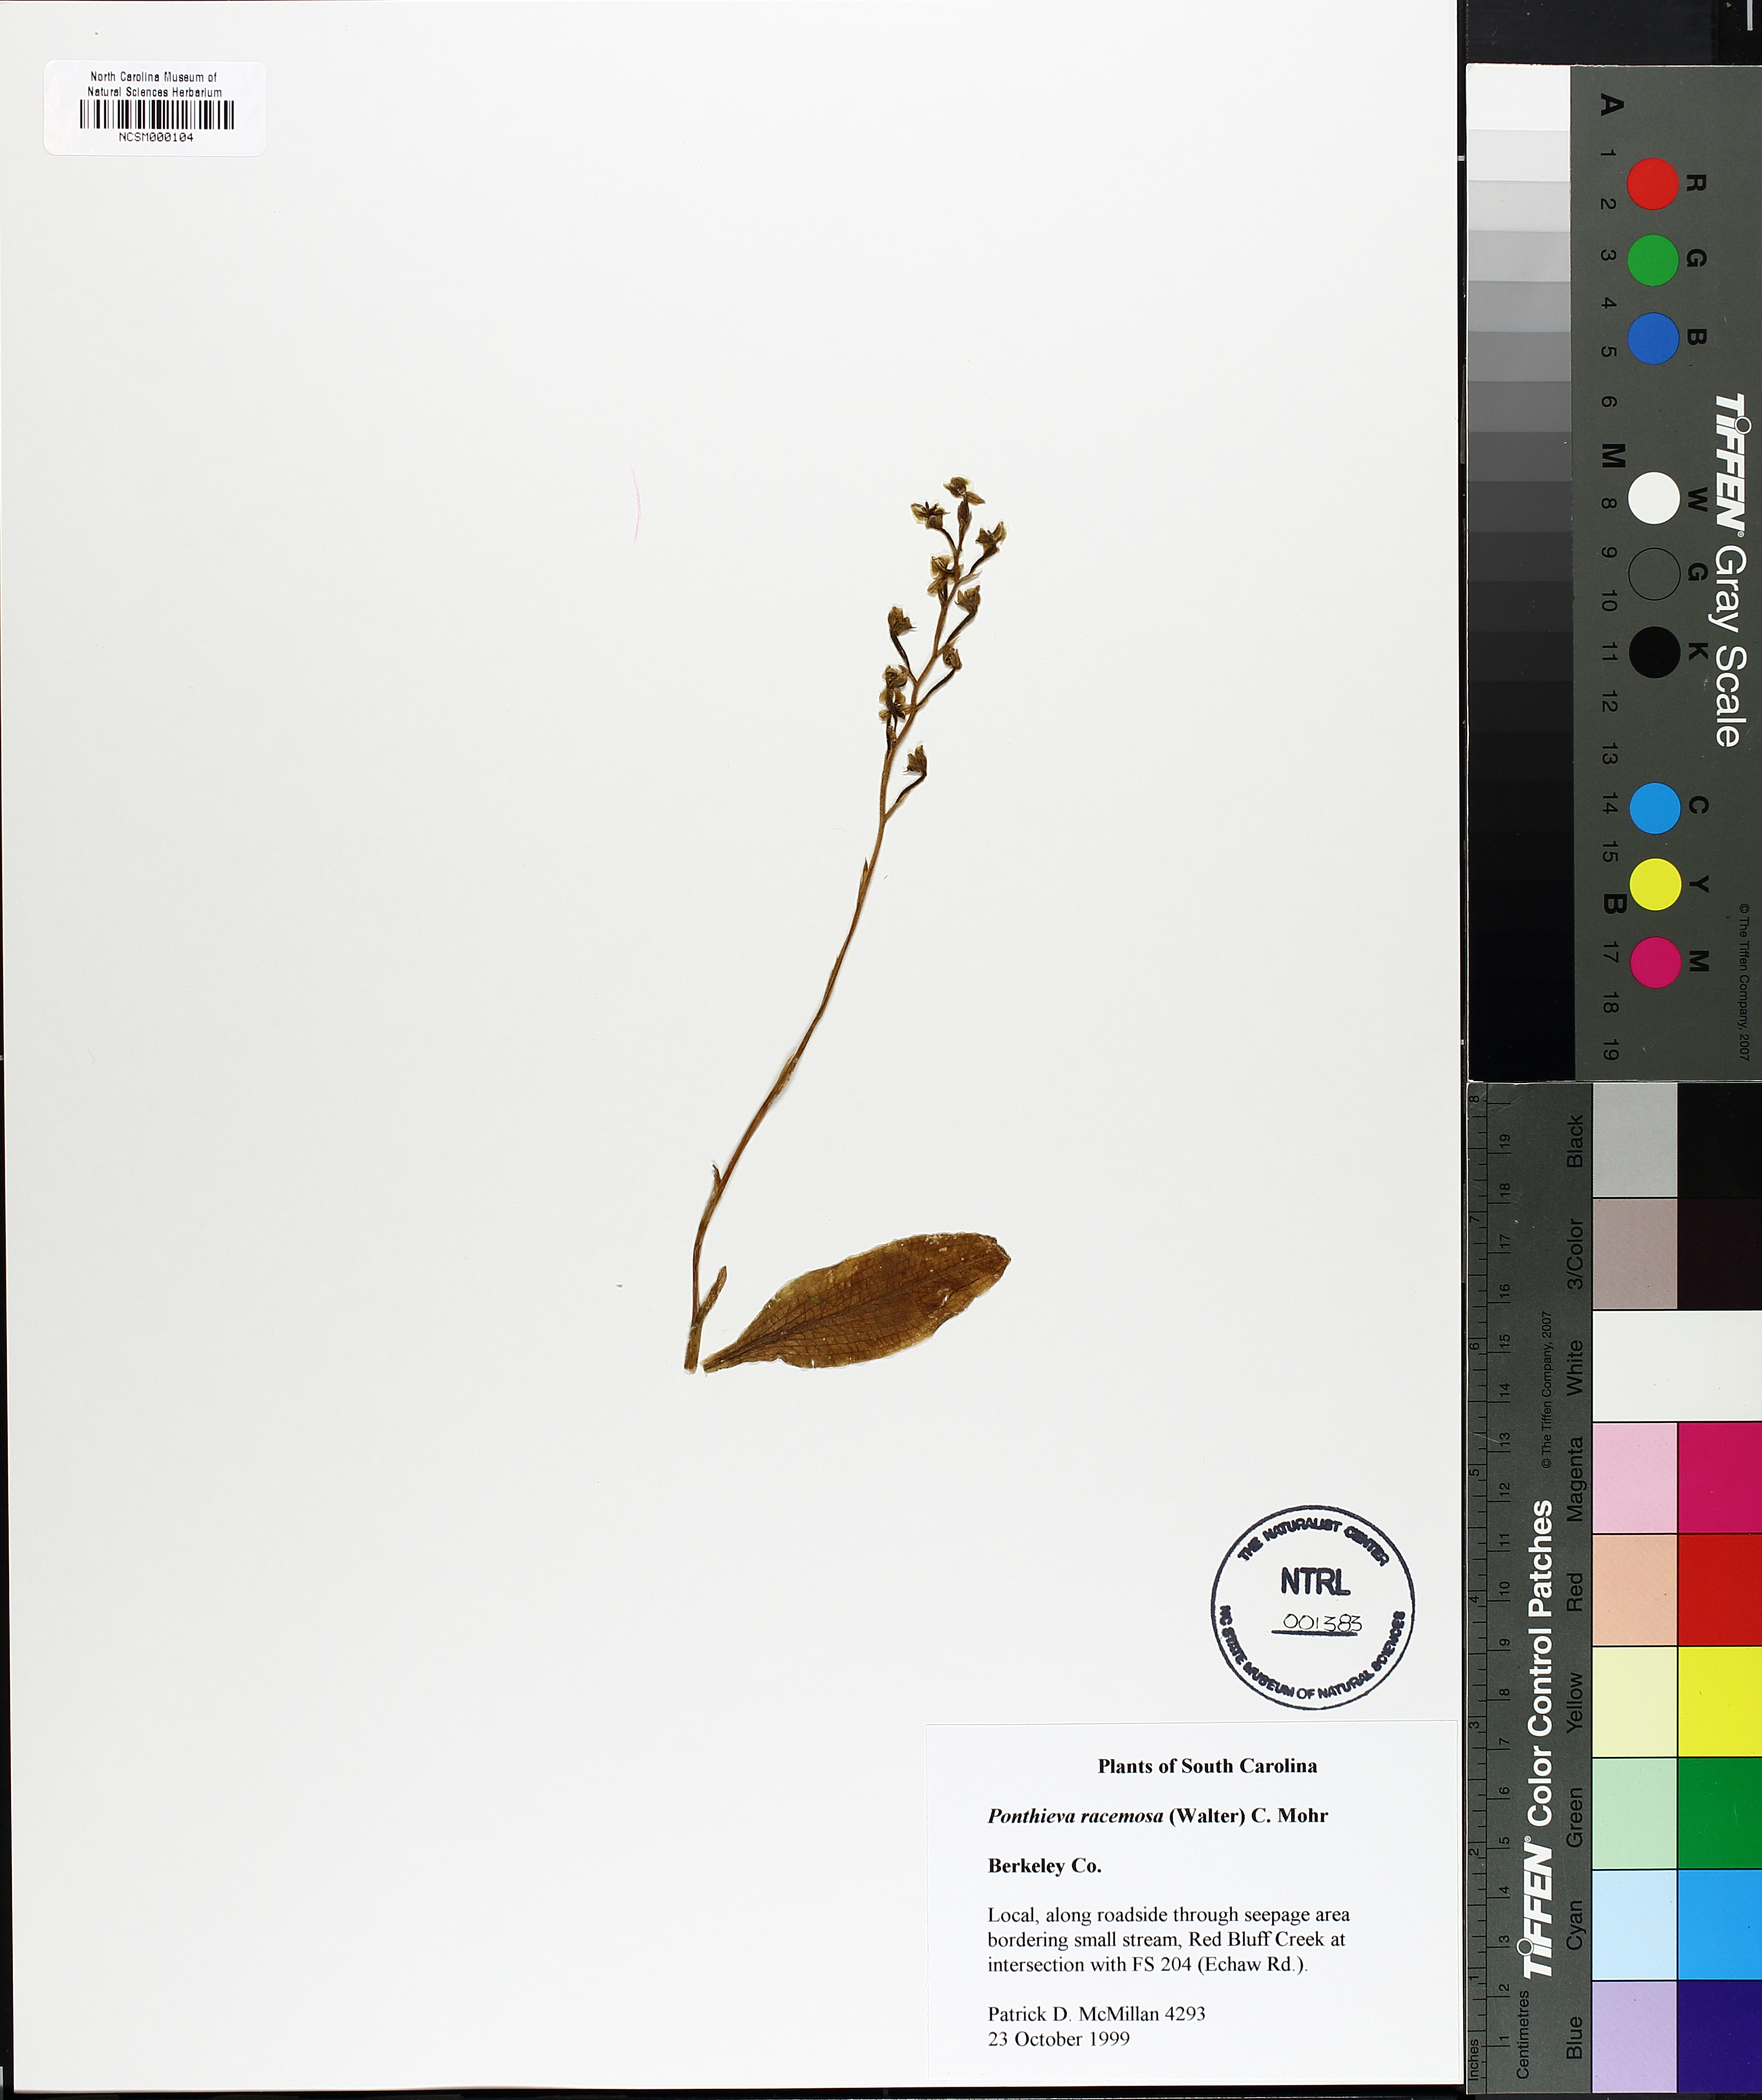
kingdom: Plantae
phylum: Tracheophyta
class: Liliopsida
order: Asparagales
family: Orchidaceae
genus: Ponthieva
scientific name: Ponthieva racemosa
